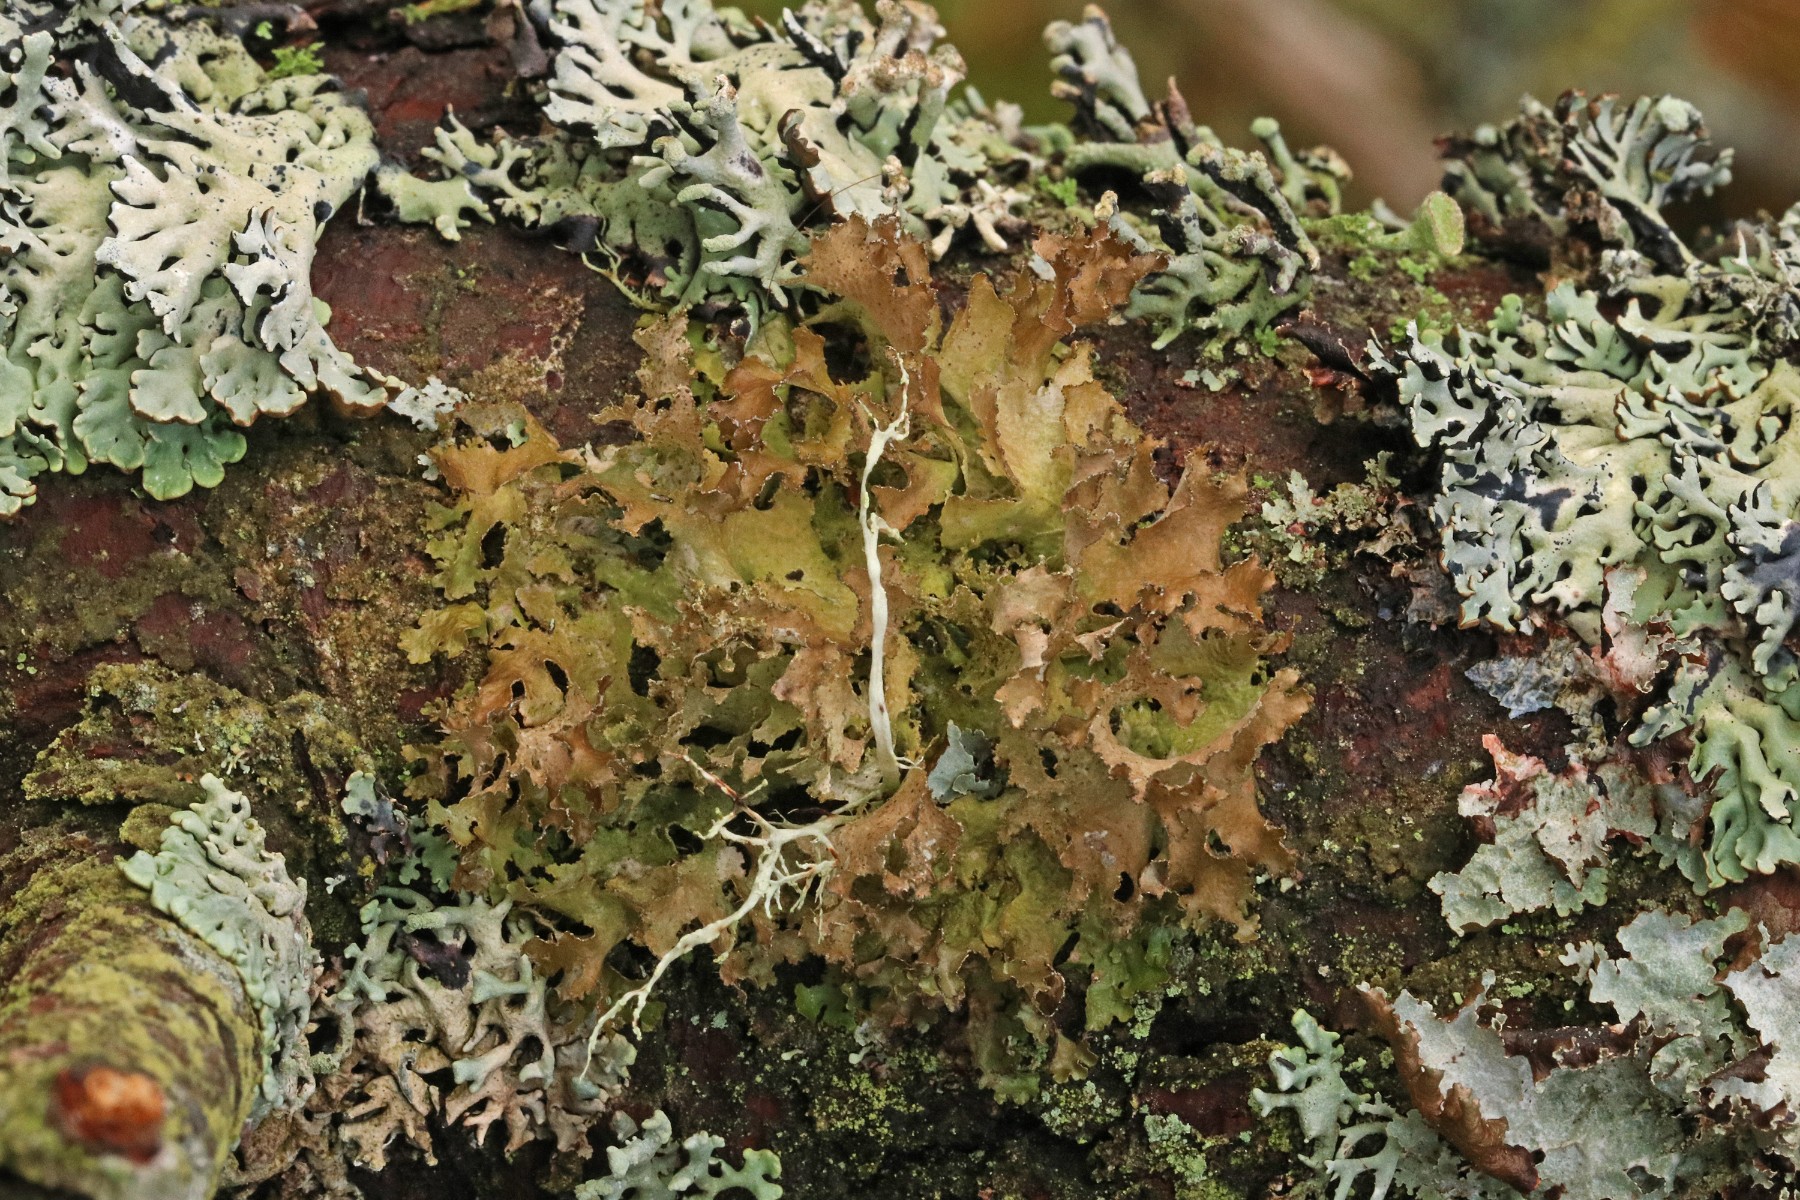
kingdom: Fungi
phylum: Ascomycota
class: Lecanoromycetes
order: Lecanorales
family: Parmeliaceae
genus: Nephromopsis
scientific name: Nephromopsis chlorophylla
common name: olivenbrun kruslav
